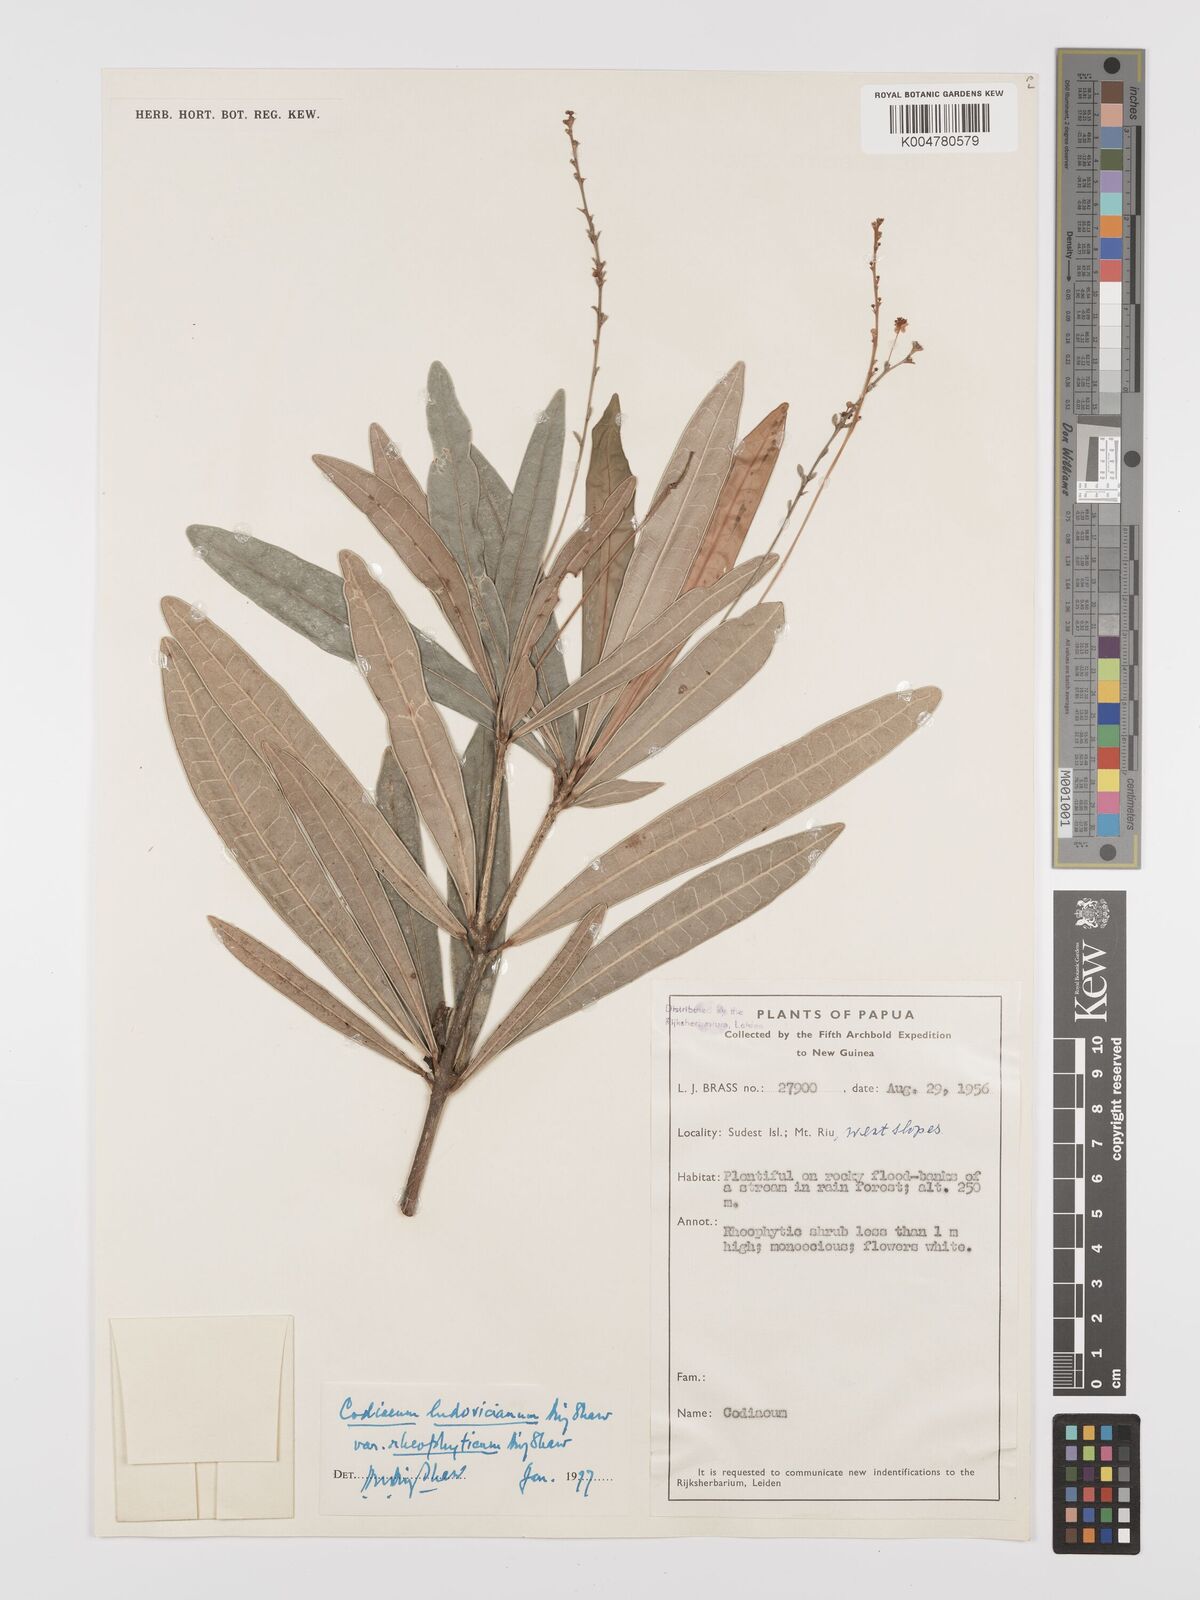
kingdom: Plantae
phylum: Tracheophyta
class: Magnoliopsida
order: Malpighiales
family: Euphorbiaceae
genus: Codiaeum
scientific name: Codiaeum ludovicianum
